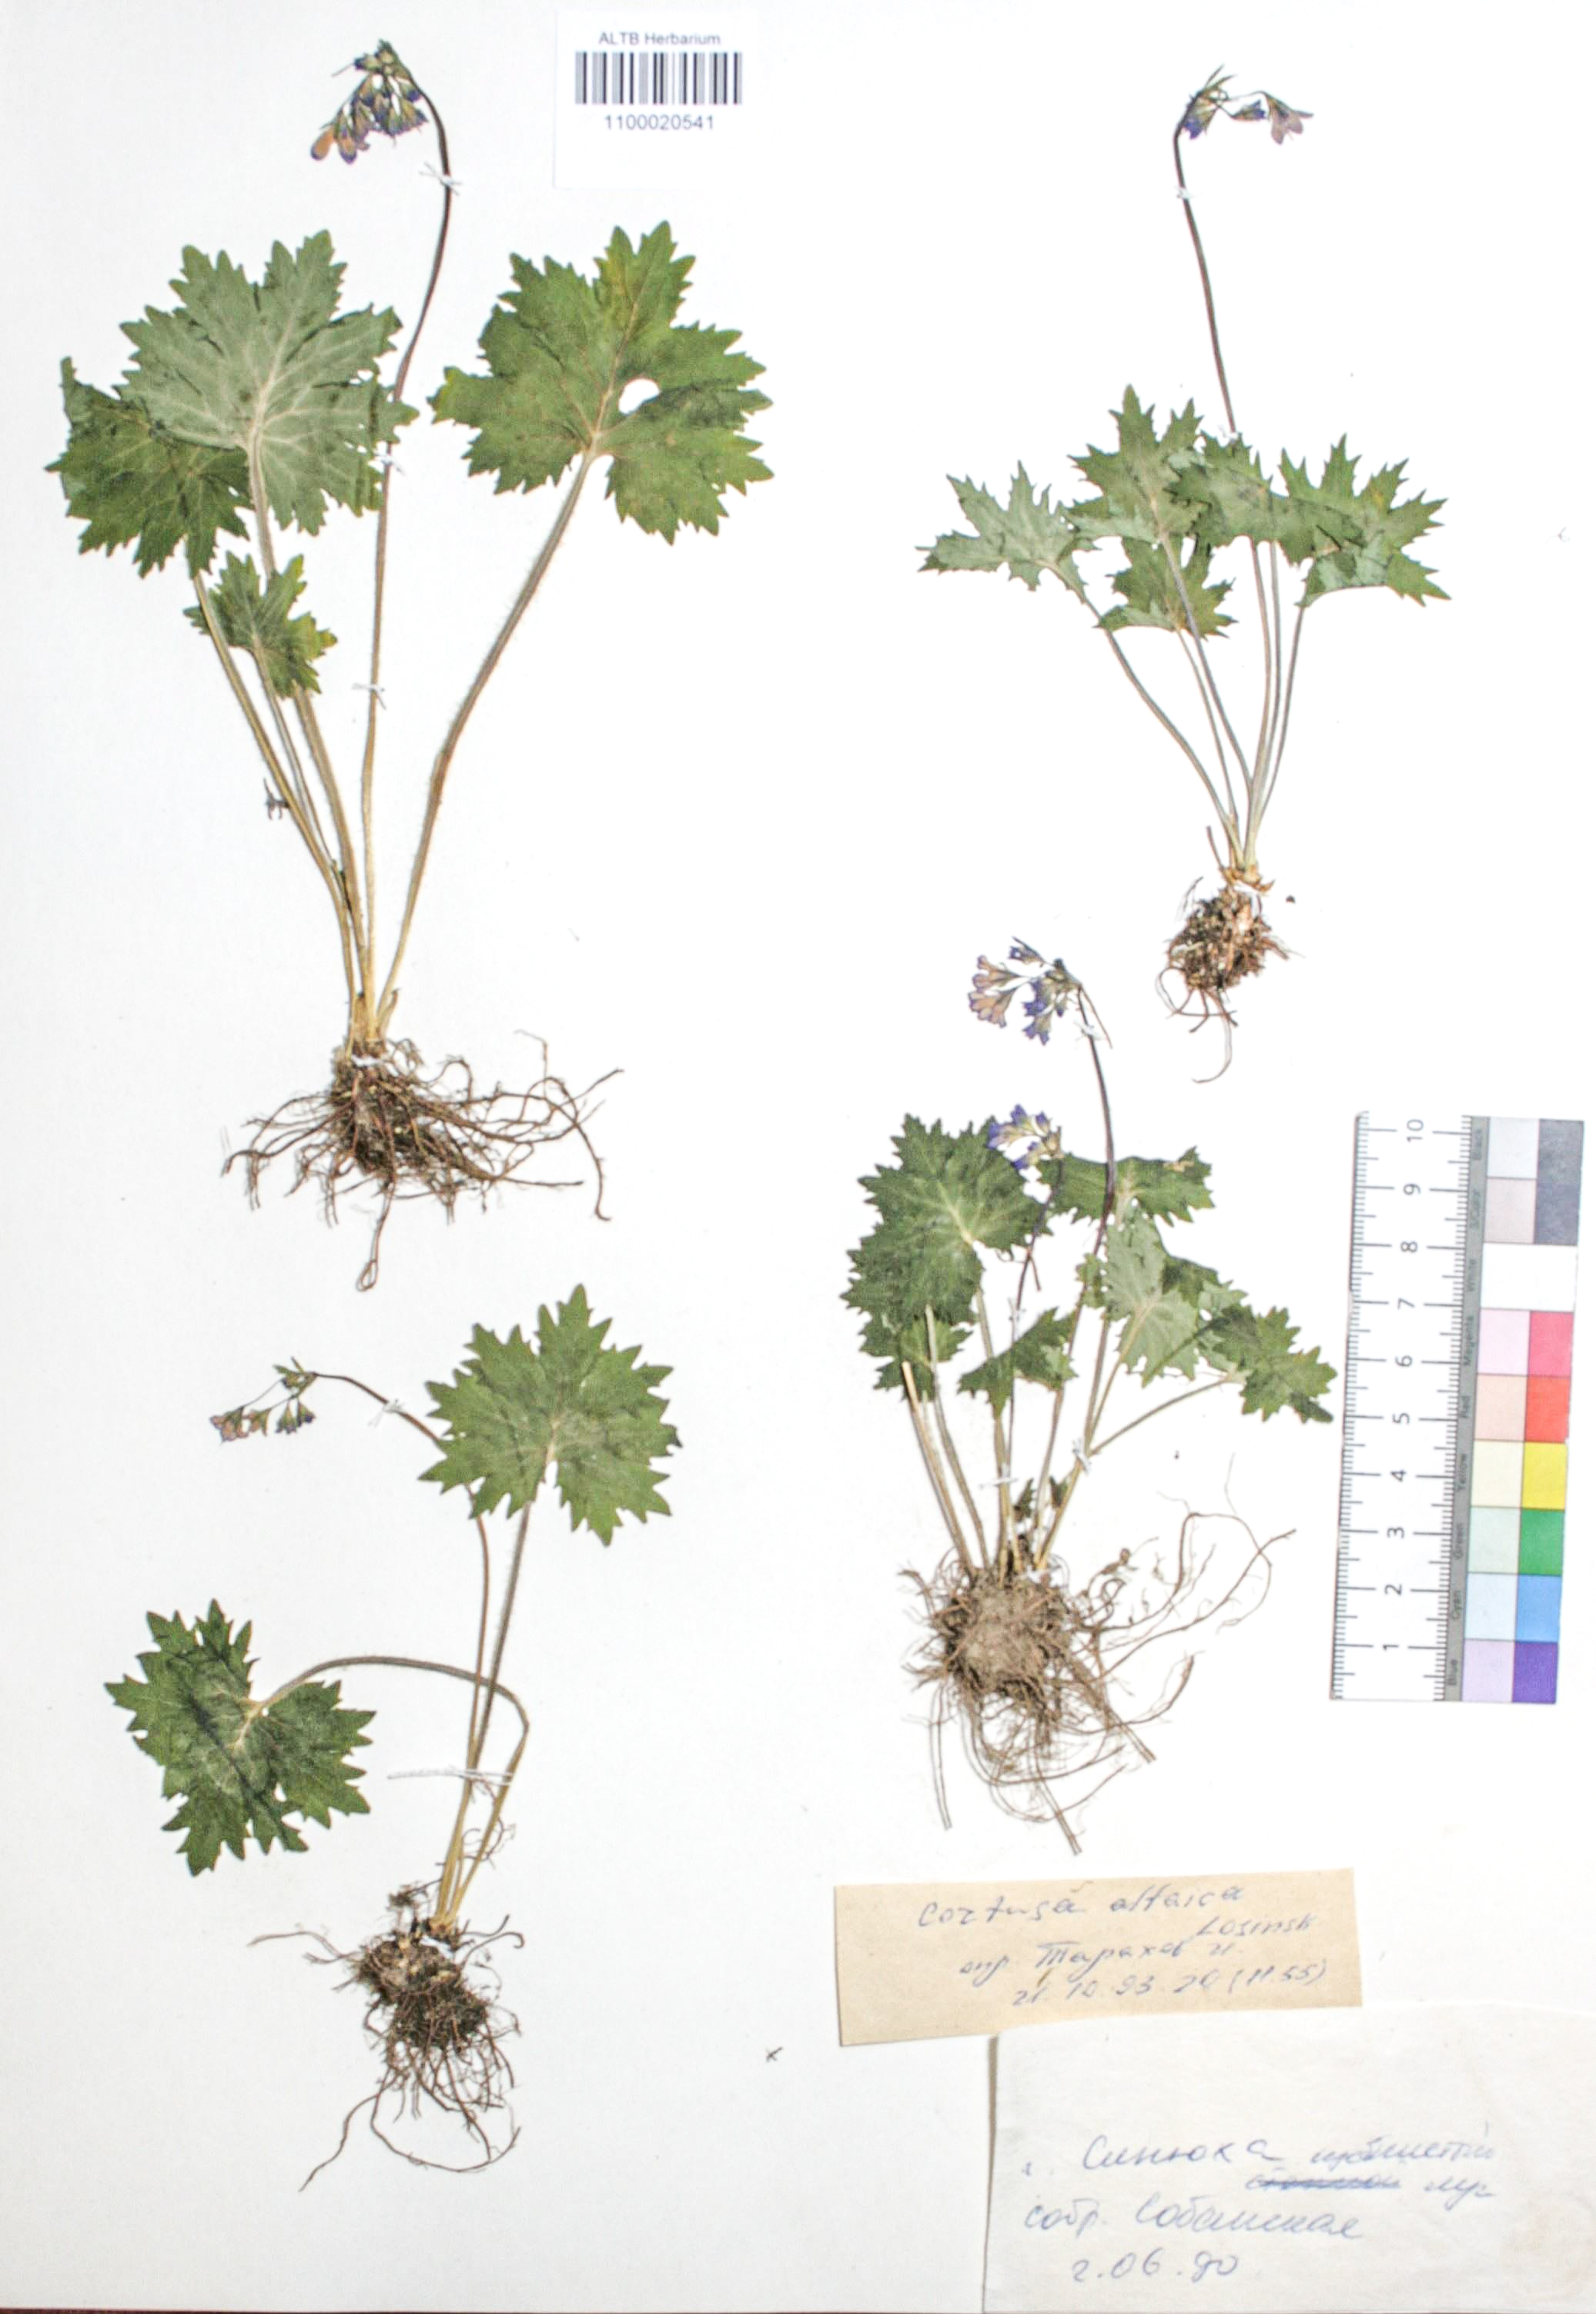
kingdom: Plantae
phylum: Tracheophyta
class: Magnoliopsida
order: Ericales
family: Primulaceae
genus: Primula
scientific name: Primula matthioli
